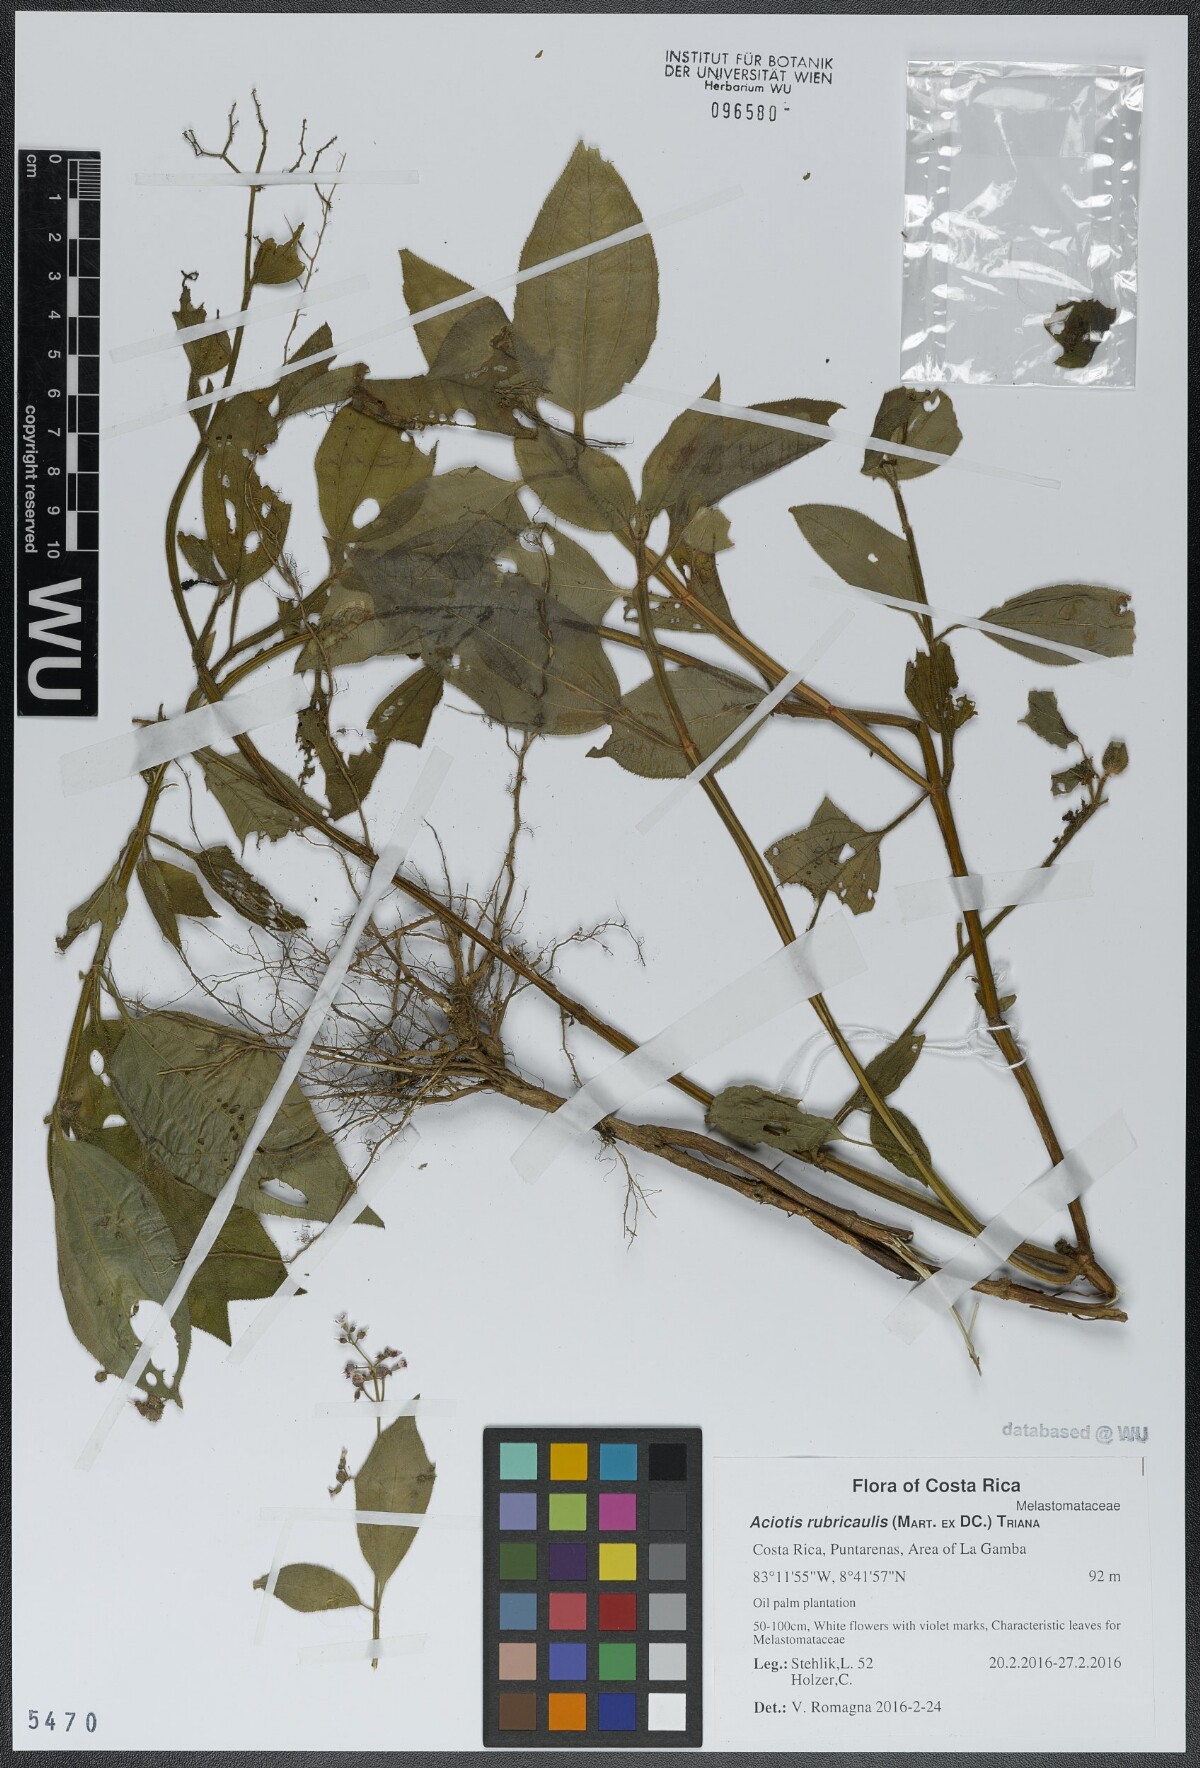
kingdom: Plantae
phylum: Tracheophyta
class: Magnoliopsida
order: Myrtales
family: Melastomataceae
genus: Aciotis
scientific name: Aciotis rubricaulis
